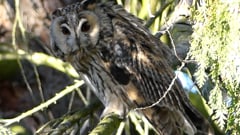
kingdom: Animalia
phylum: Chordata
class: Aves
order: Strigiformes
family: Strigidae
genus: Asio
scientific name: Asio otus
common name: Long-eared owl
